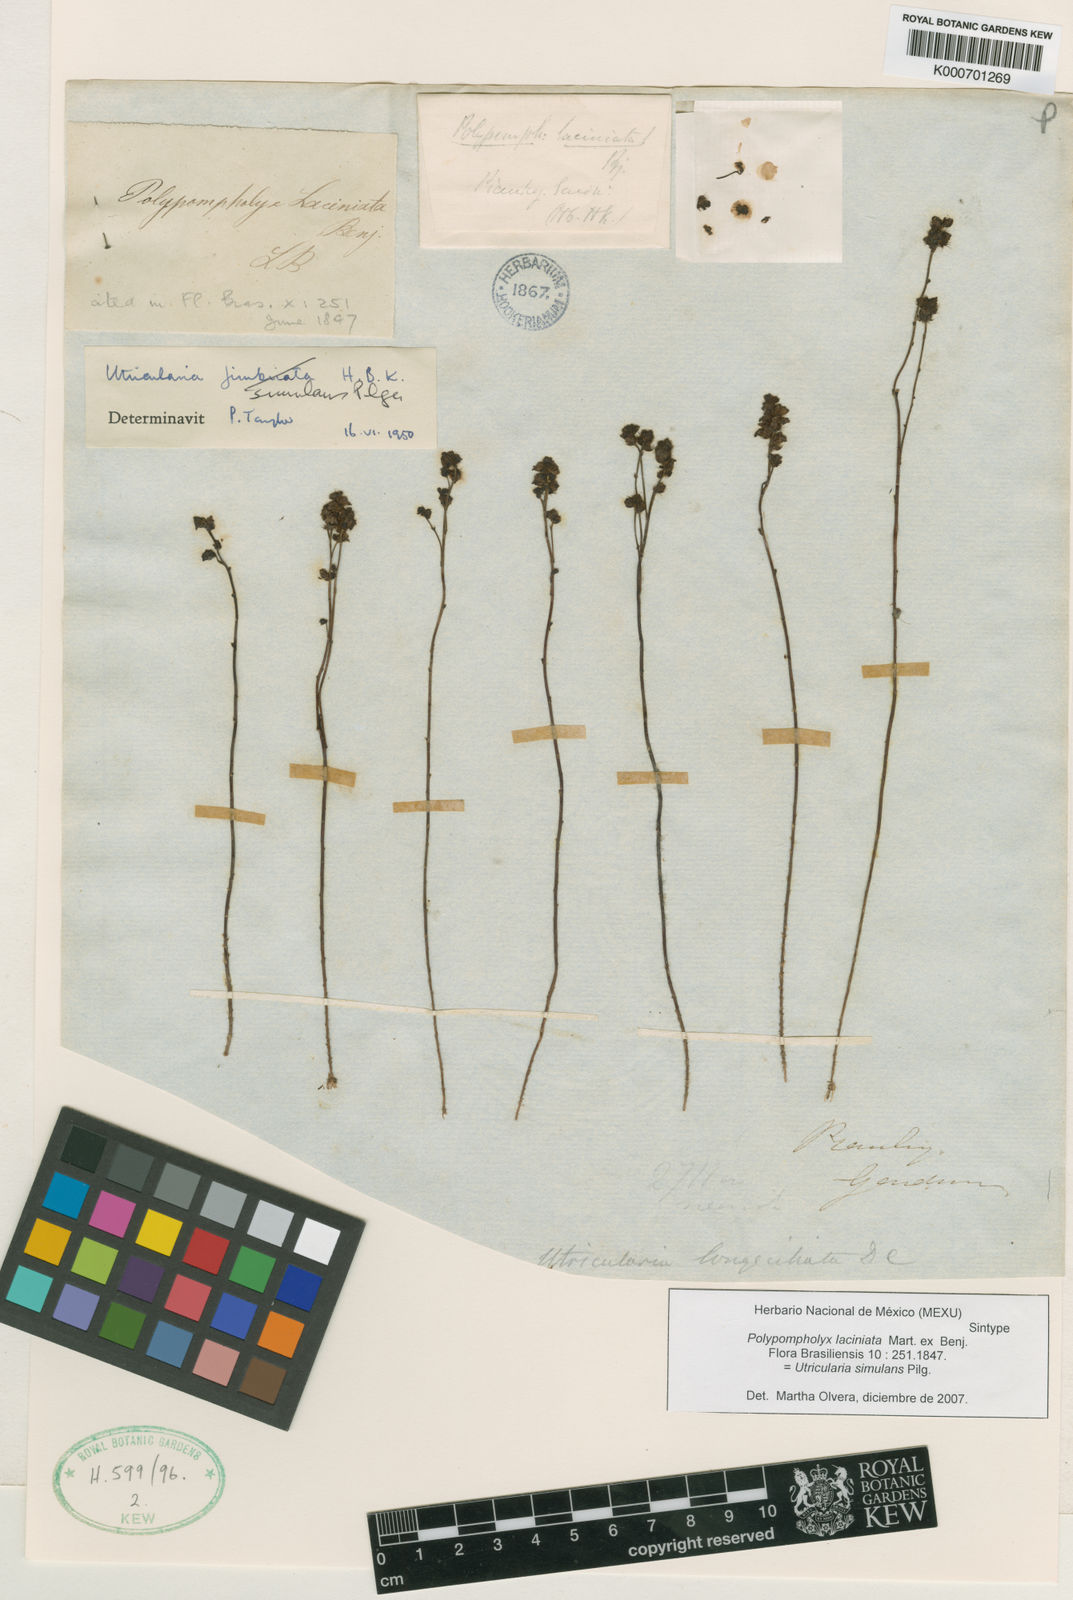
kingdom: Plantae
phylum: Tracheophyta
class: Magnoliopsida
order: Lamiales
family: Lentibulariaceae
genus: Utricularia
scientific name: Utricularia simulans
